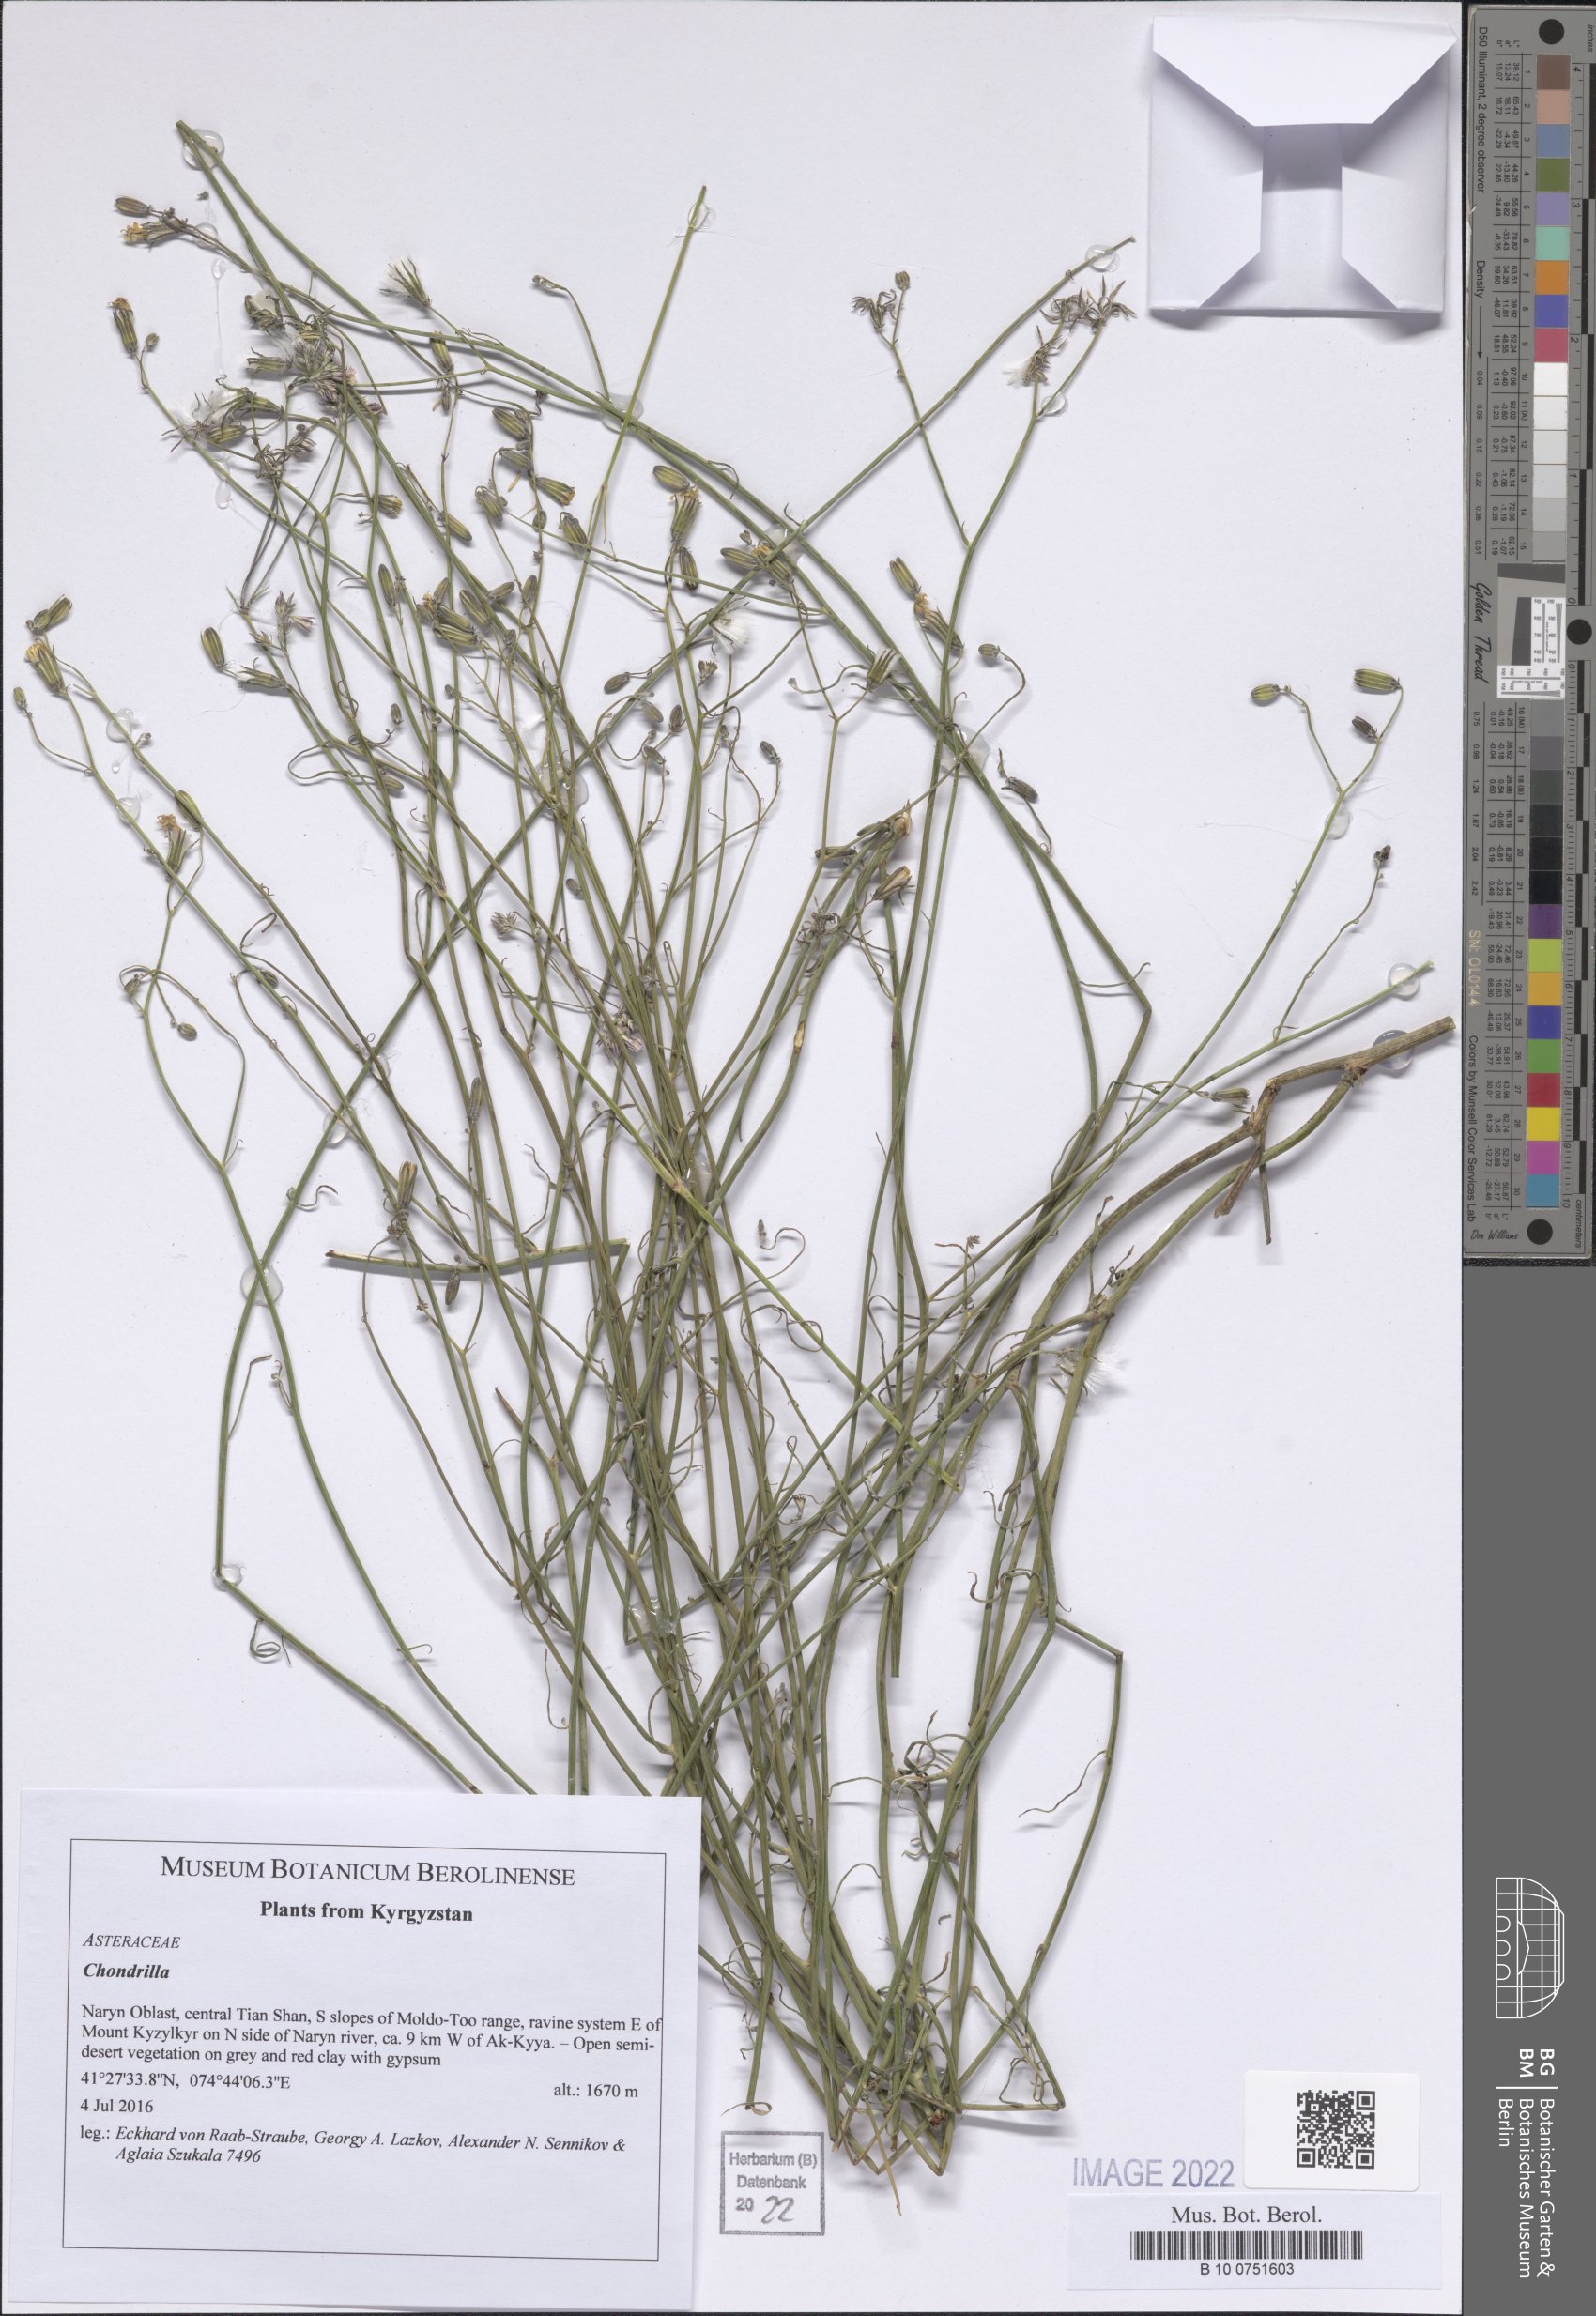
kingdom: Plantae
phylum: Tracheophyta
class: Magnoliopsida
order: Asterales
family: Asteraceae
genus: Chondrilla
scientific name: Chondrilla
